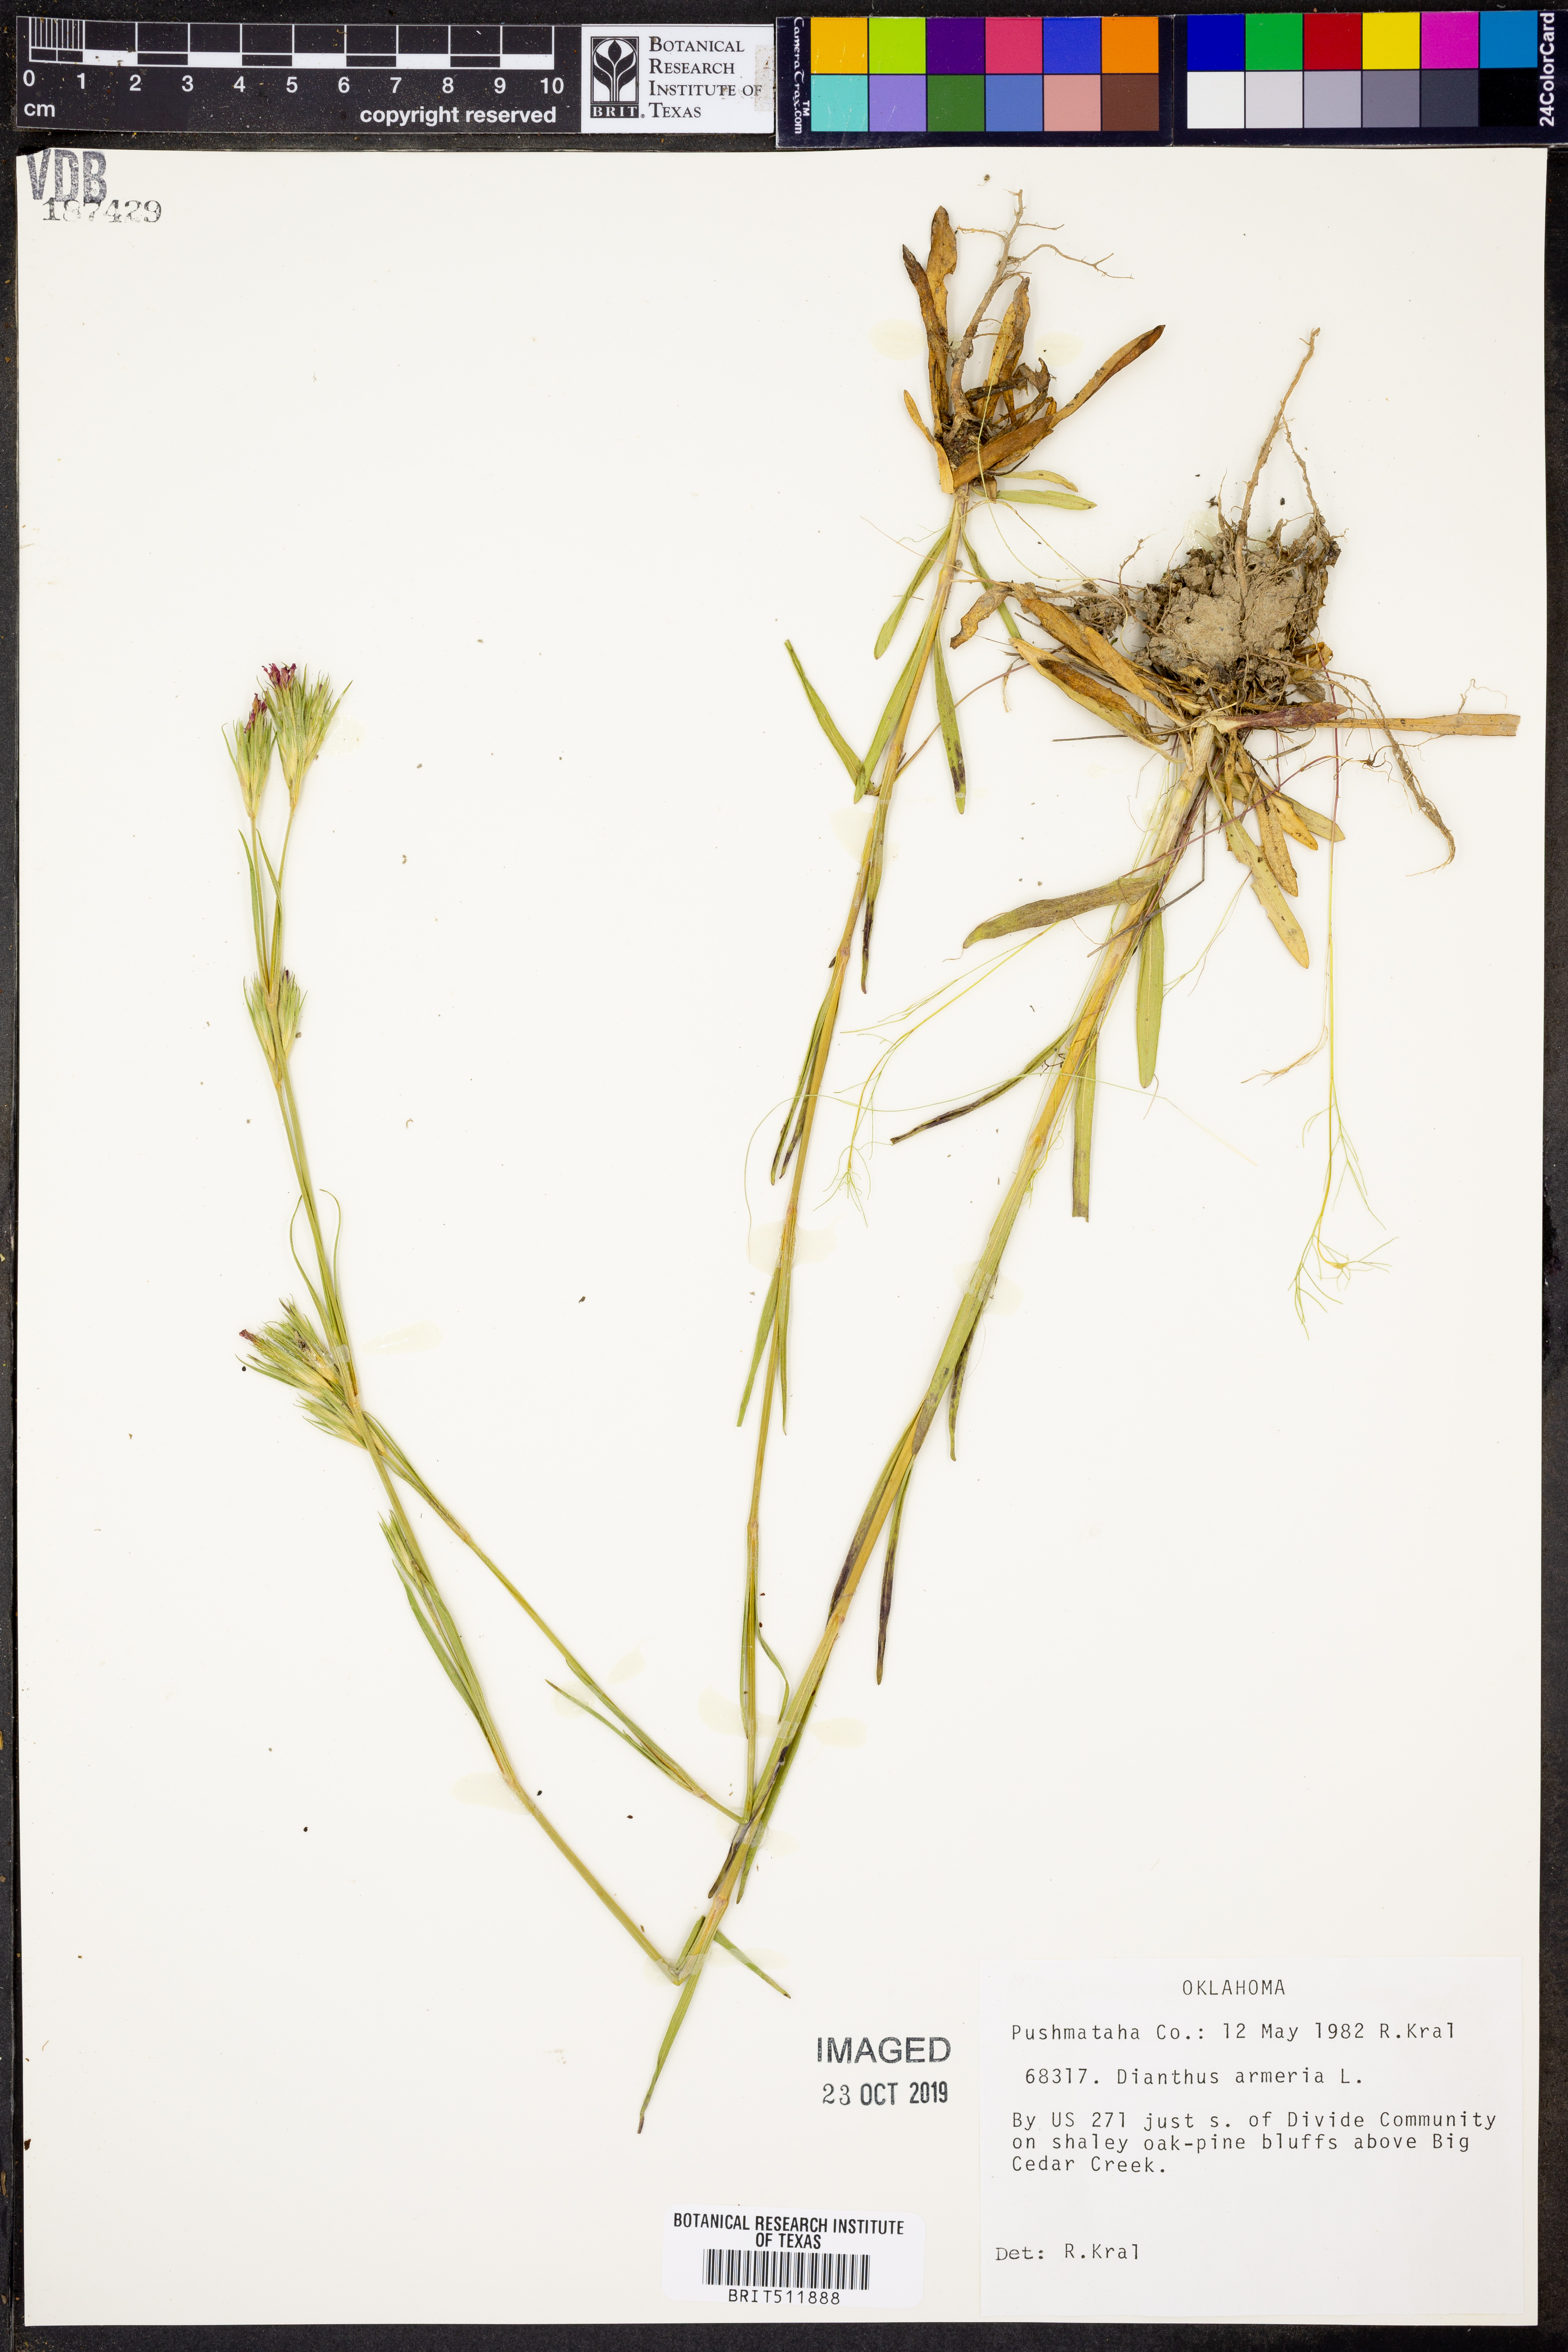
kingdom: Plantae
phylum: Tracheophyta
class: Magnoliopsida
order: Caryophyllales
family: Caryophyllaceae
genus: Dianthus
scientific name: Dianthus armeria
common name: Deptford pink
